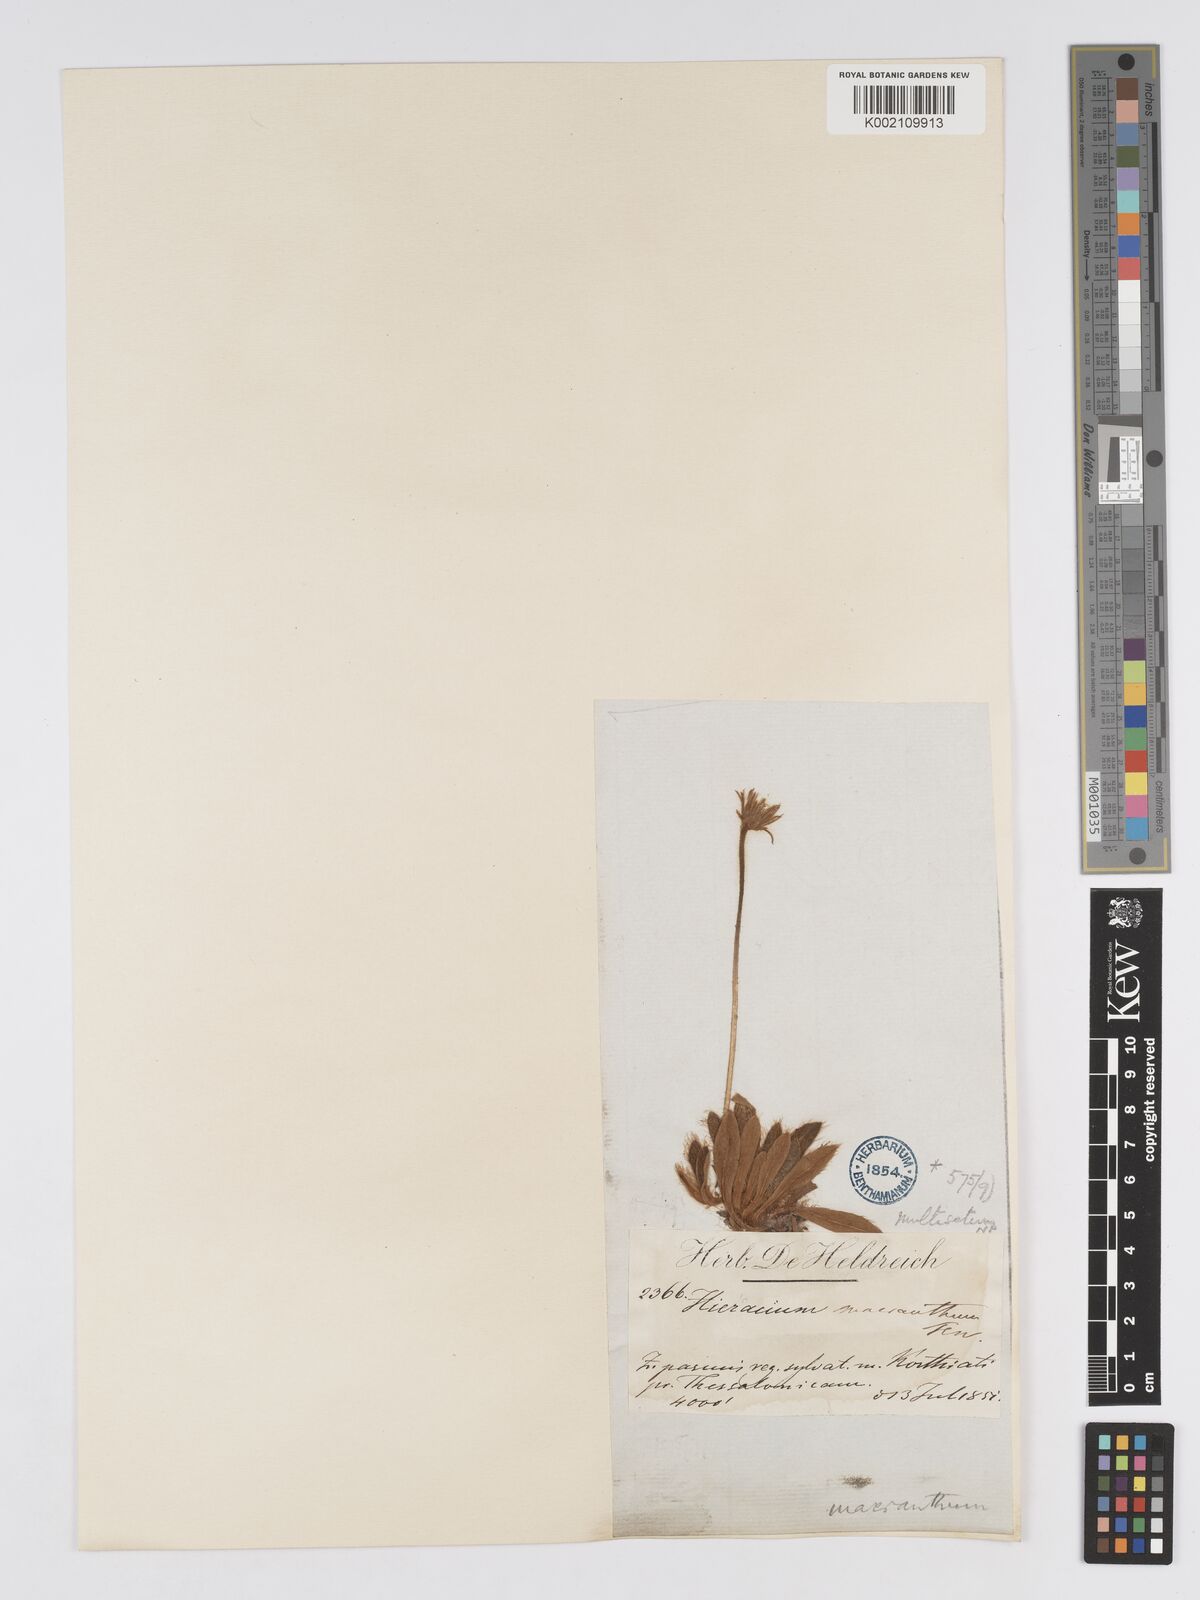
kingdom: Plantae
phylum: Tracheophyta
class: Magnoliopsida
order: Asterales
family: Asteraceae
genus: Pilosella
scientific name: Pilosella hoppeana
